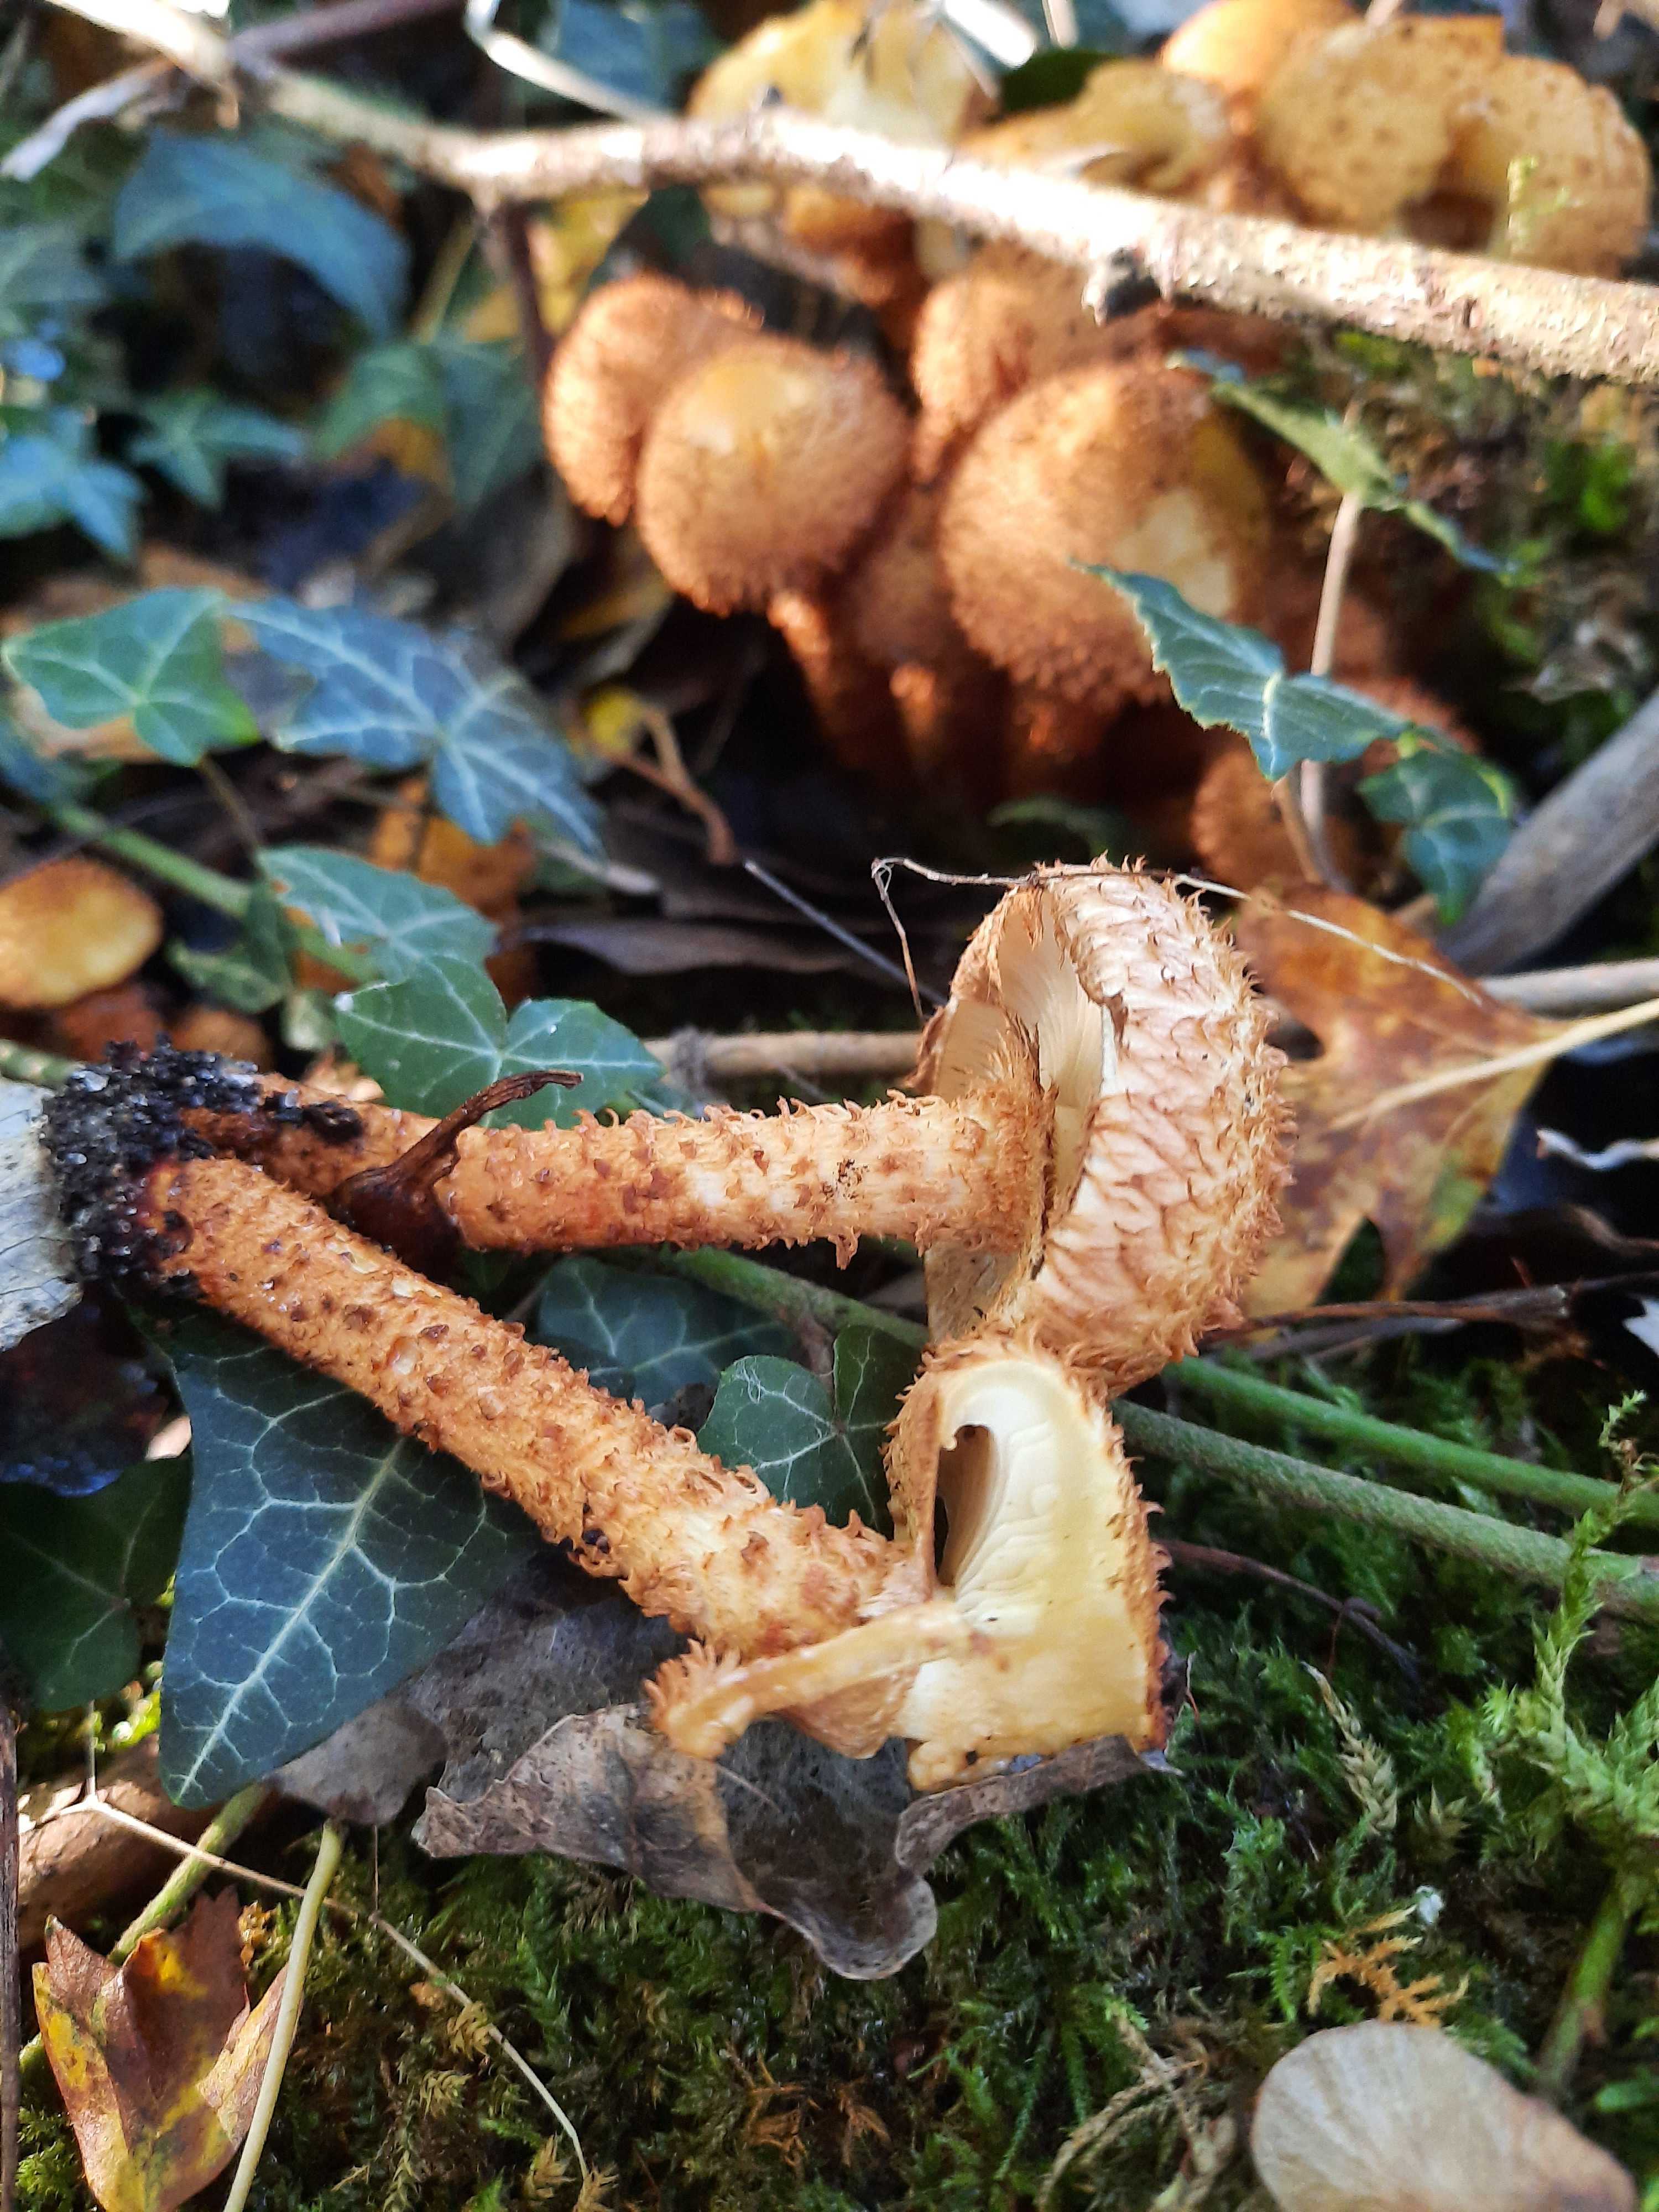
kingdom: Fungi
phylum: Basidiomycota
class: Agaricomycetes
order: Agaricales
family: Strophariaceae
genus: Pholiota
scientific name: Pholiota squarrosa
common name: krumskællet skælhat
